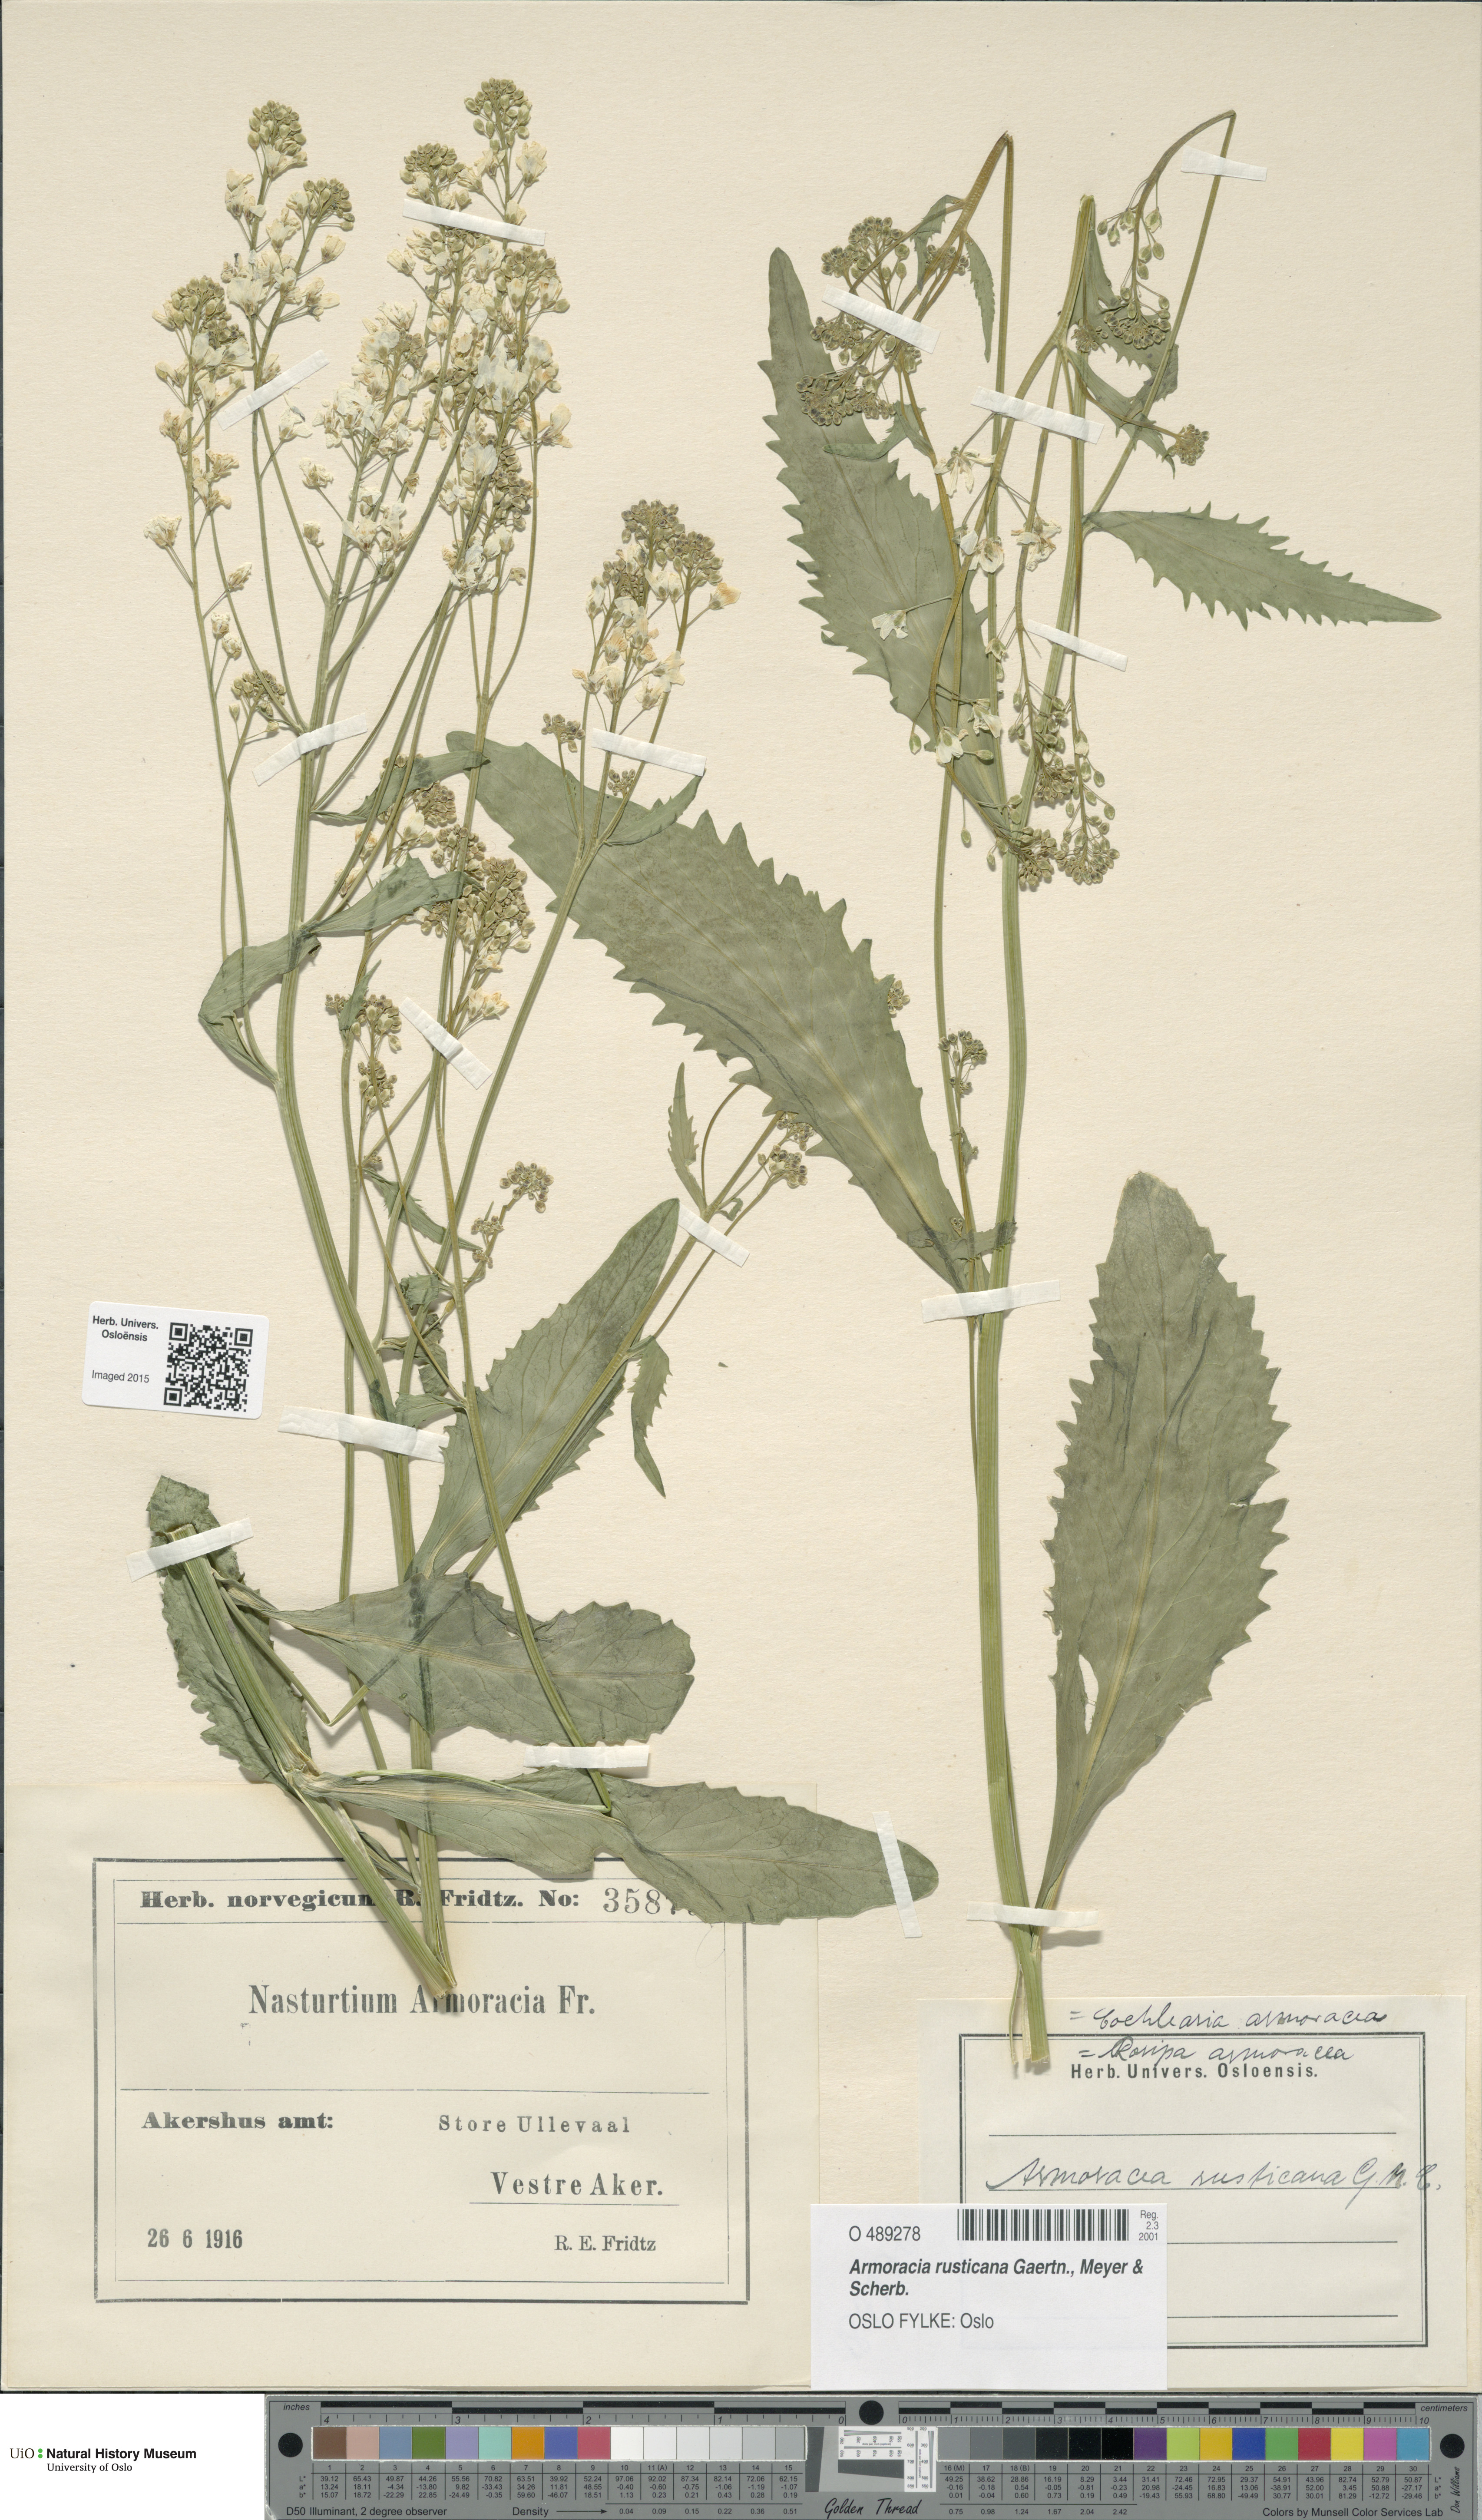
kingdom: Plantae
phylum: Tracheophyta
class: Magnoliopsida
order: Brassicales
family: Brassicaceae
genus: Armoracia
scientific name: Armoracia rusticana
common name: Horseradish
